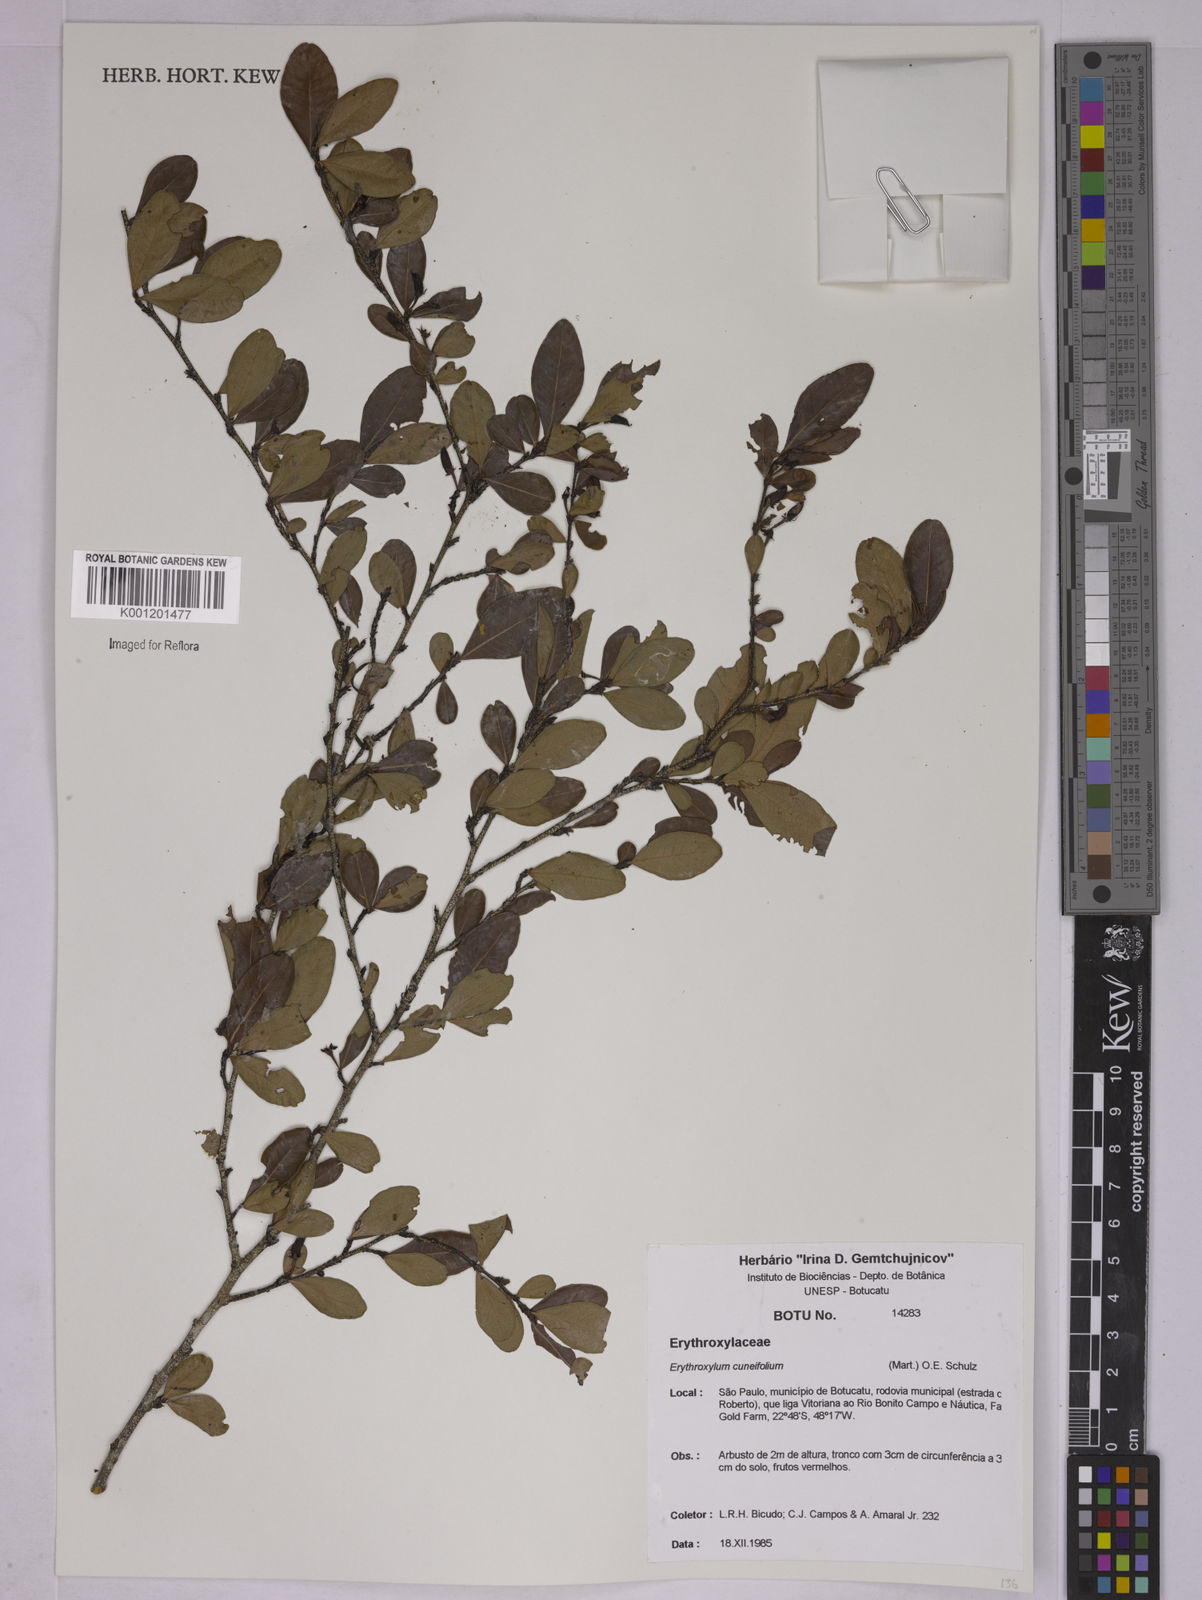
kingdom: Plantae
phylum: Tracheophyta
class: Magnoliopsida
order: Malpighiales
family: Erythroxylaceae
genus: Erythroxylum
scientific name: Erythroxylum cuneifolium
